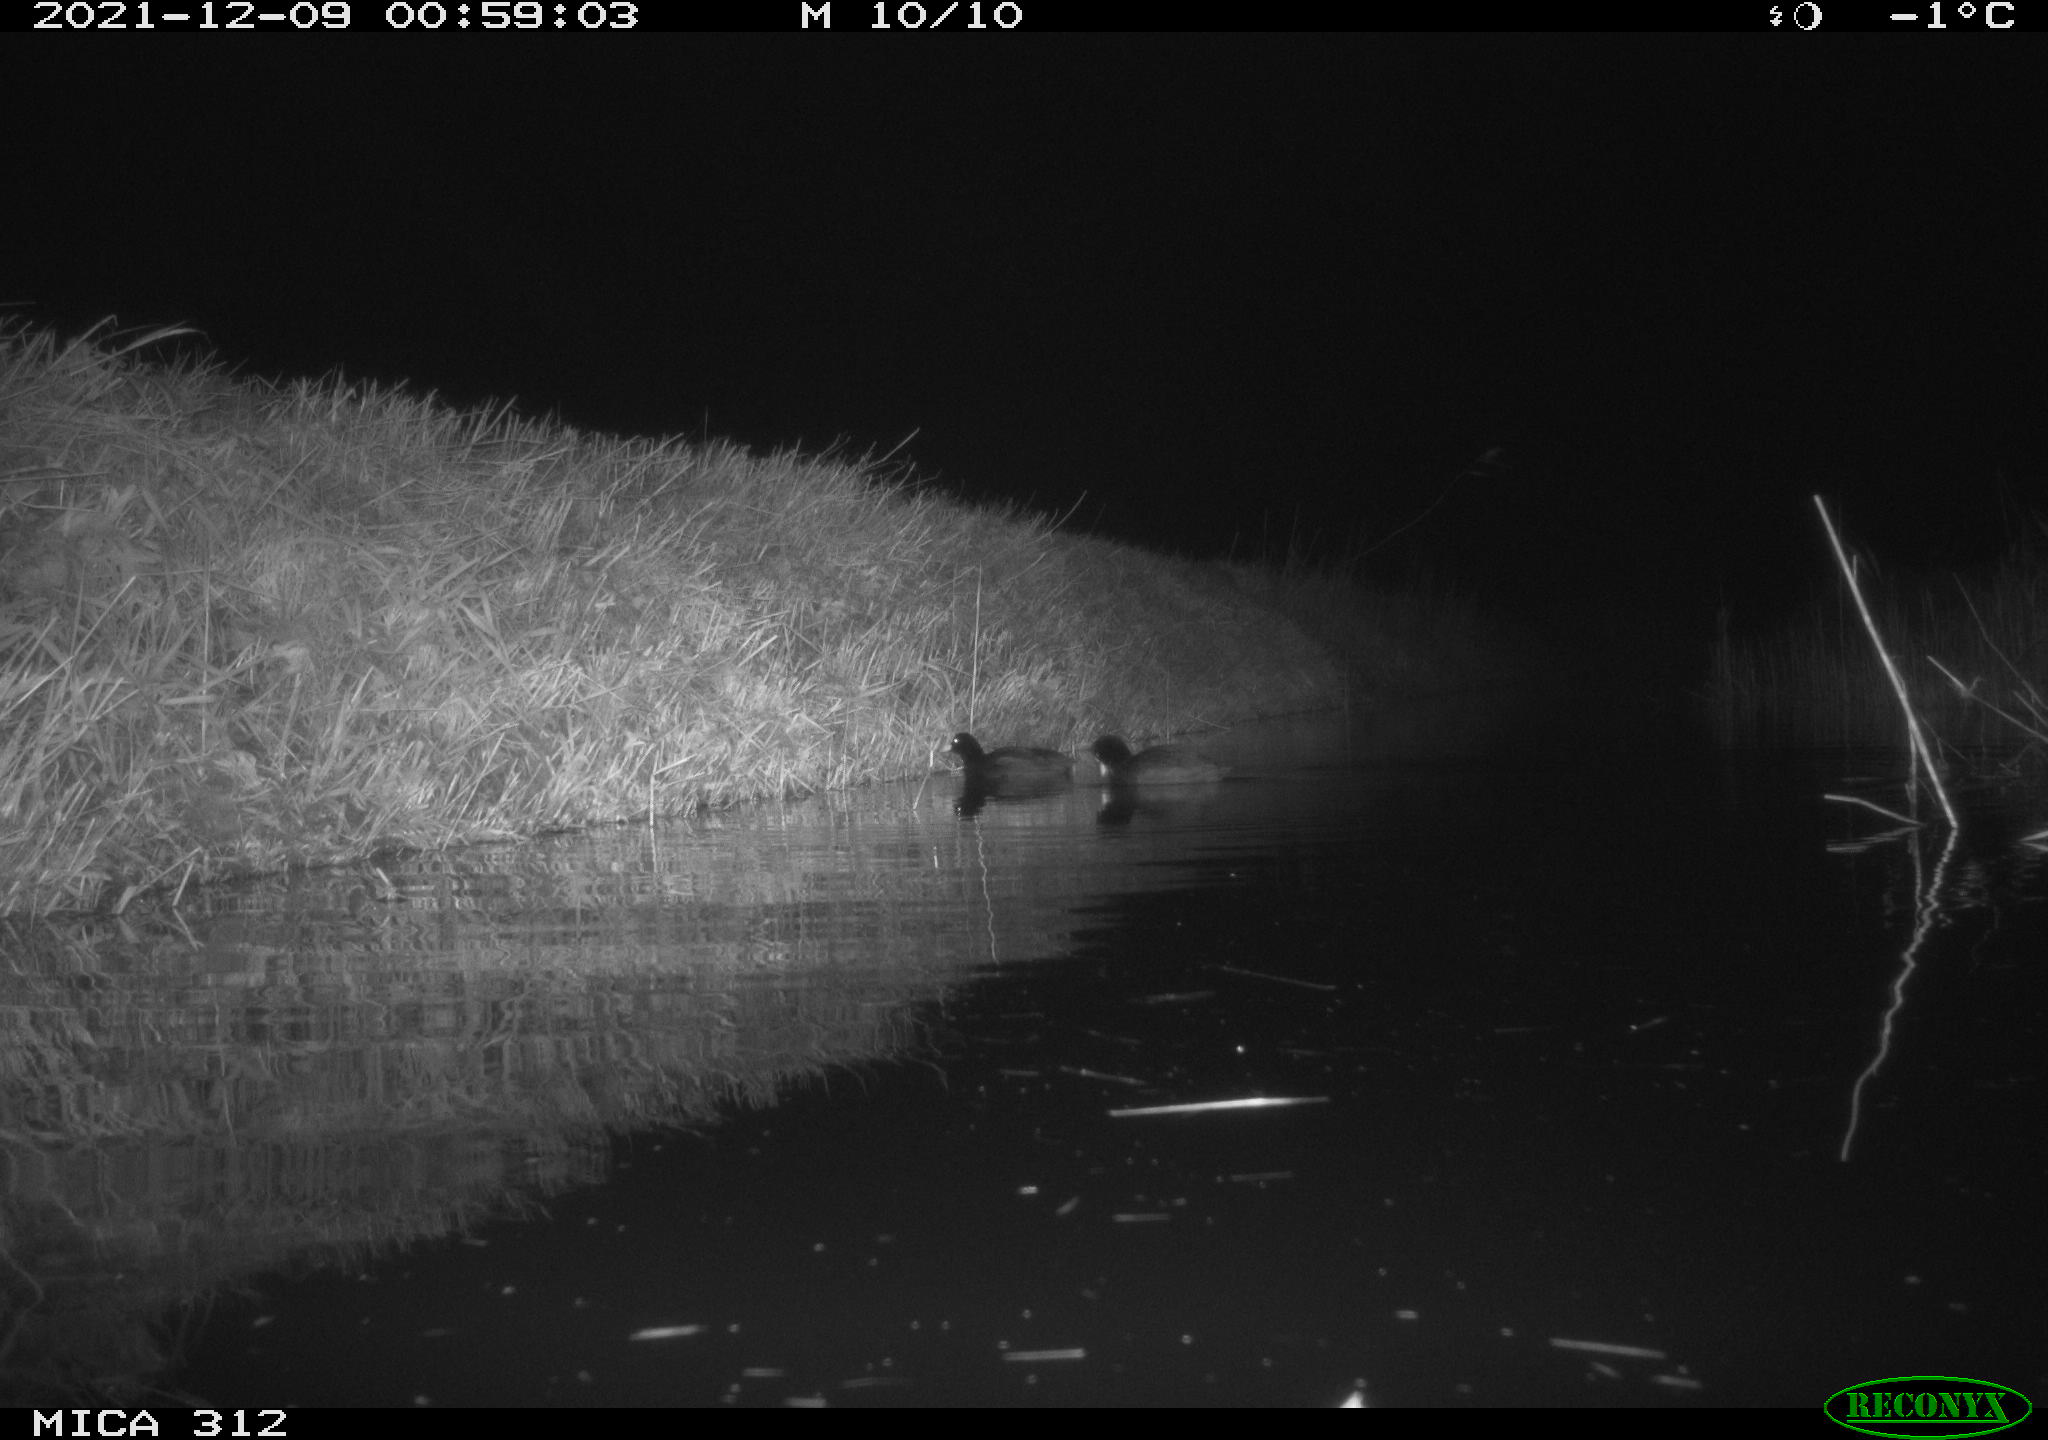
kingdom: Animalia
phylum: Chordata
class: Aves
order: Gruiformes
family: Rallidae
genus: Gallinula
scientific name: Gallinula chloropus
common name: Common moorhen
